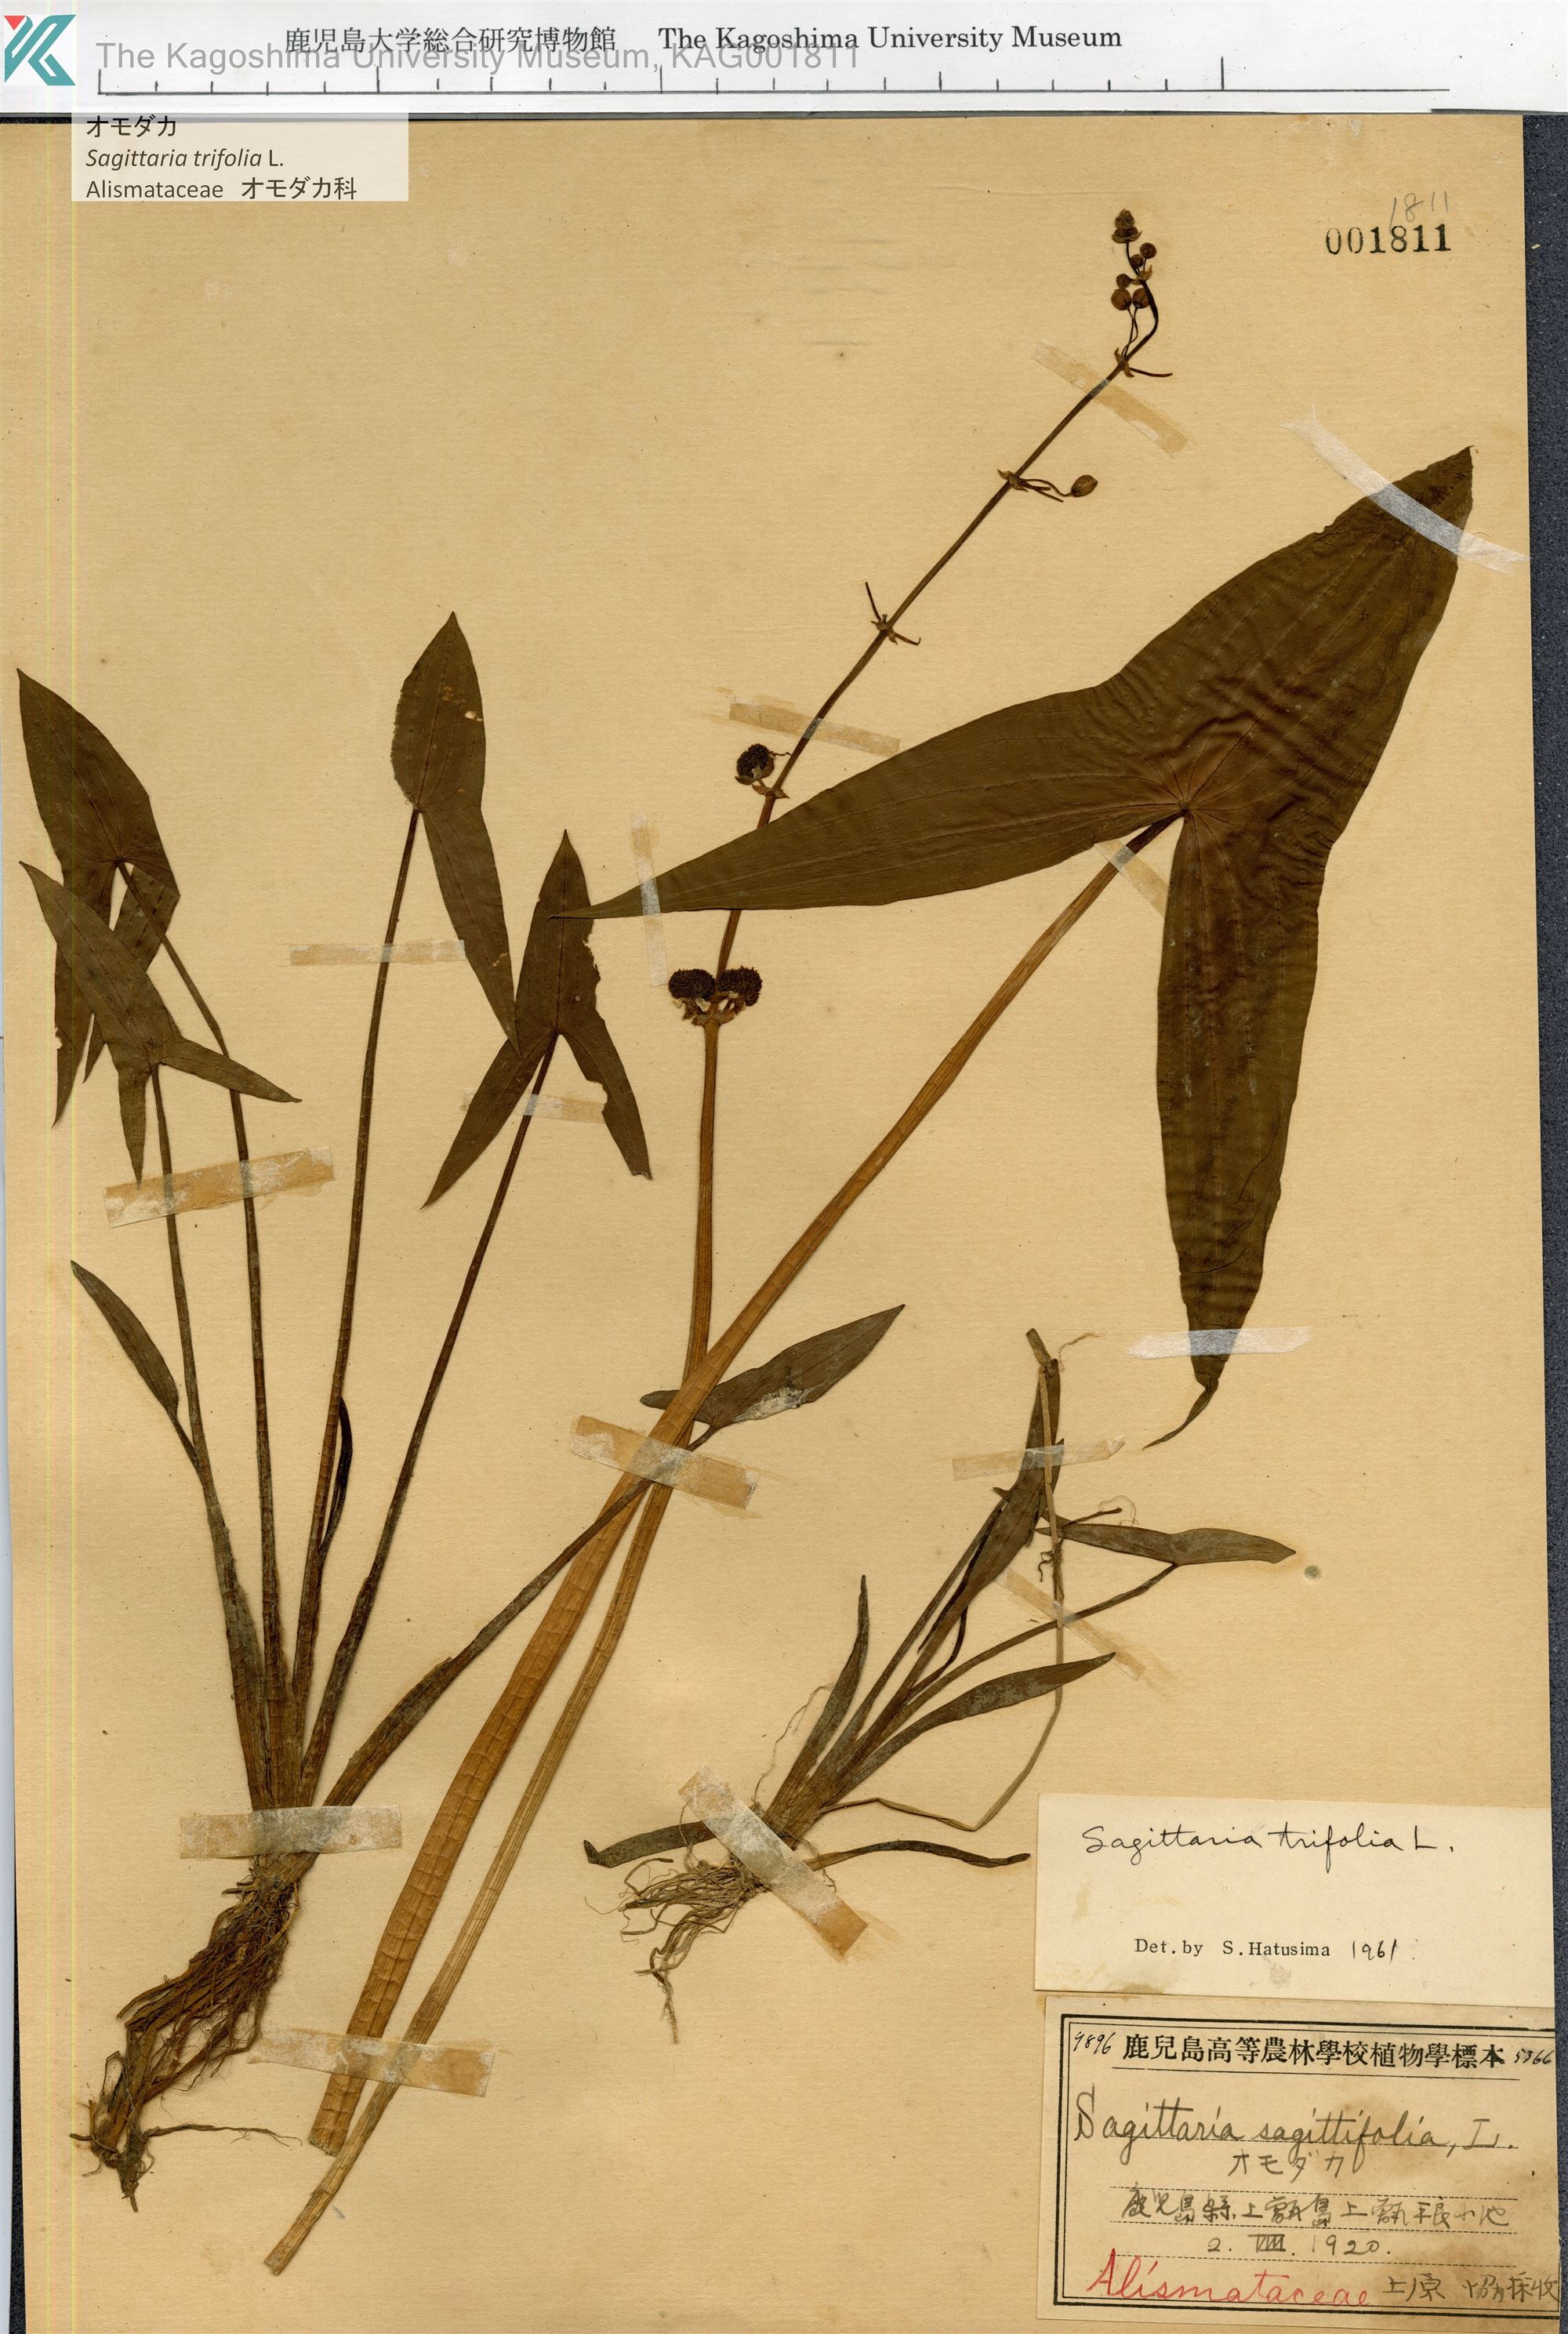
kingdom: Plantae
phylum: Tracheophyta
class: Liliopsida
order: Alismatales
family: Alismataceae
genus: Sagittaria
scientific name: Sagittaria trifolia
